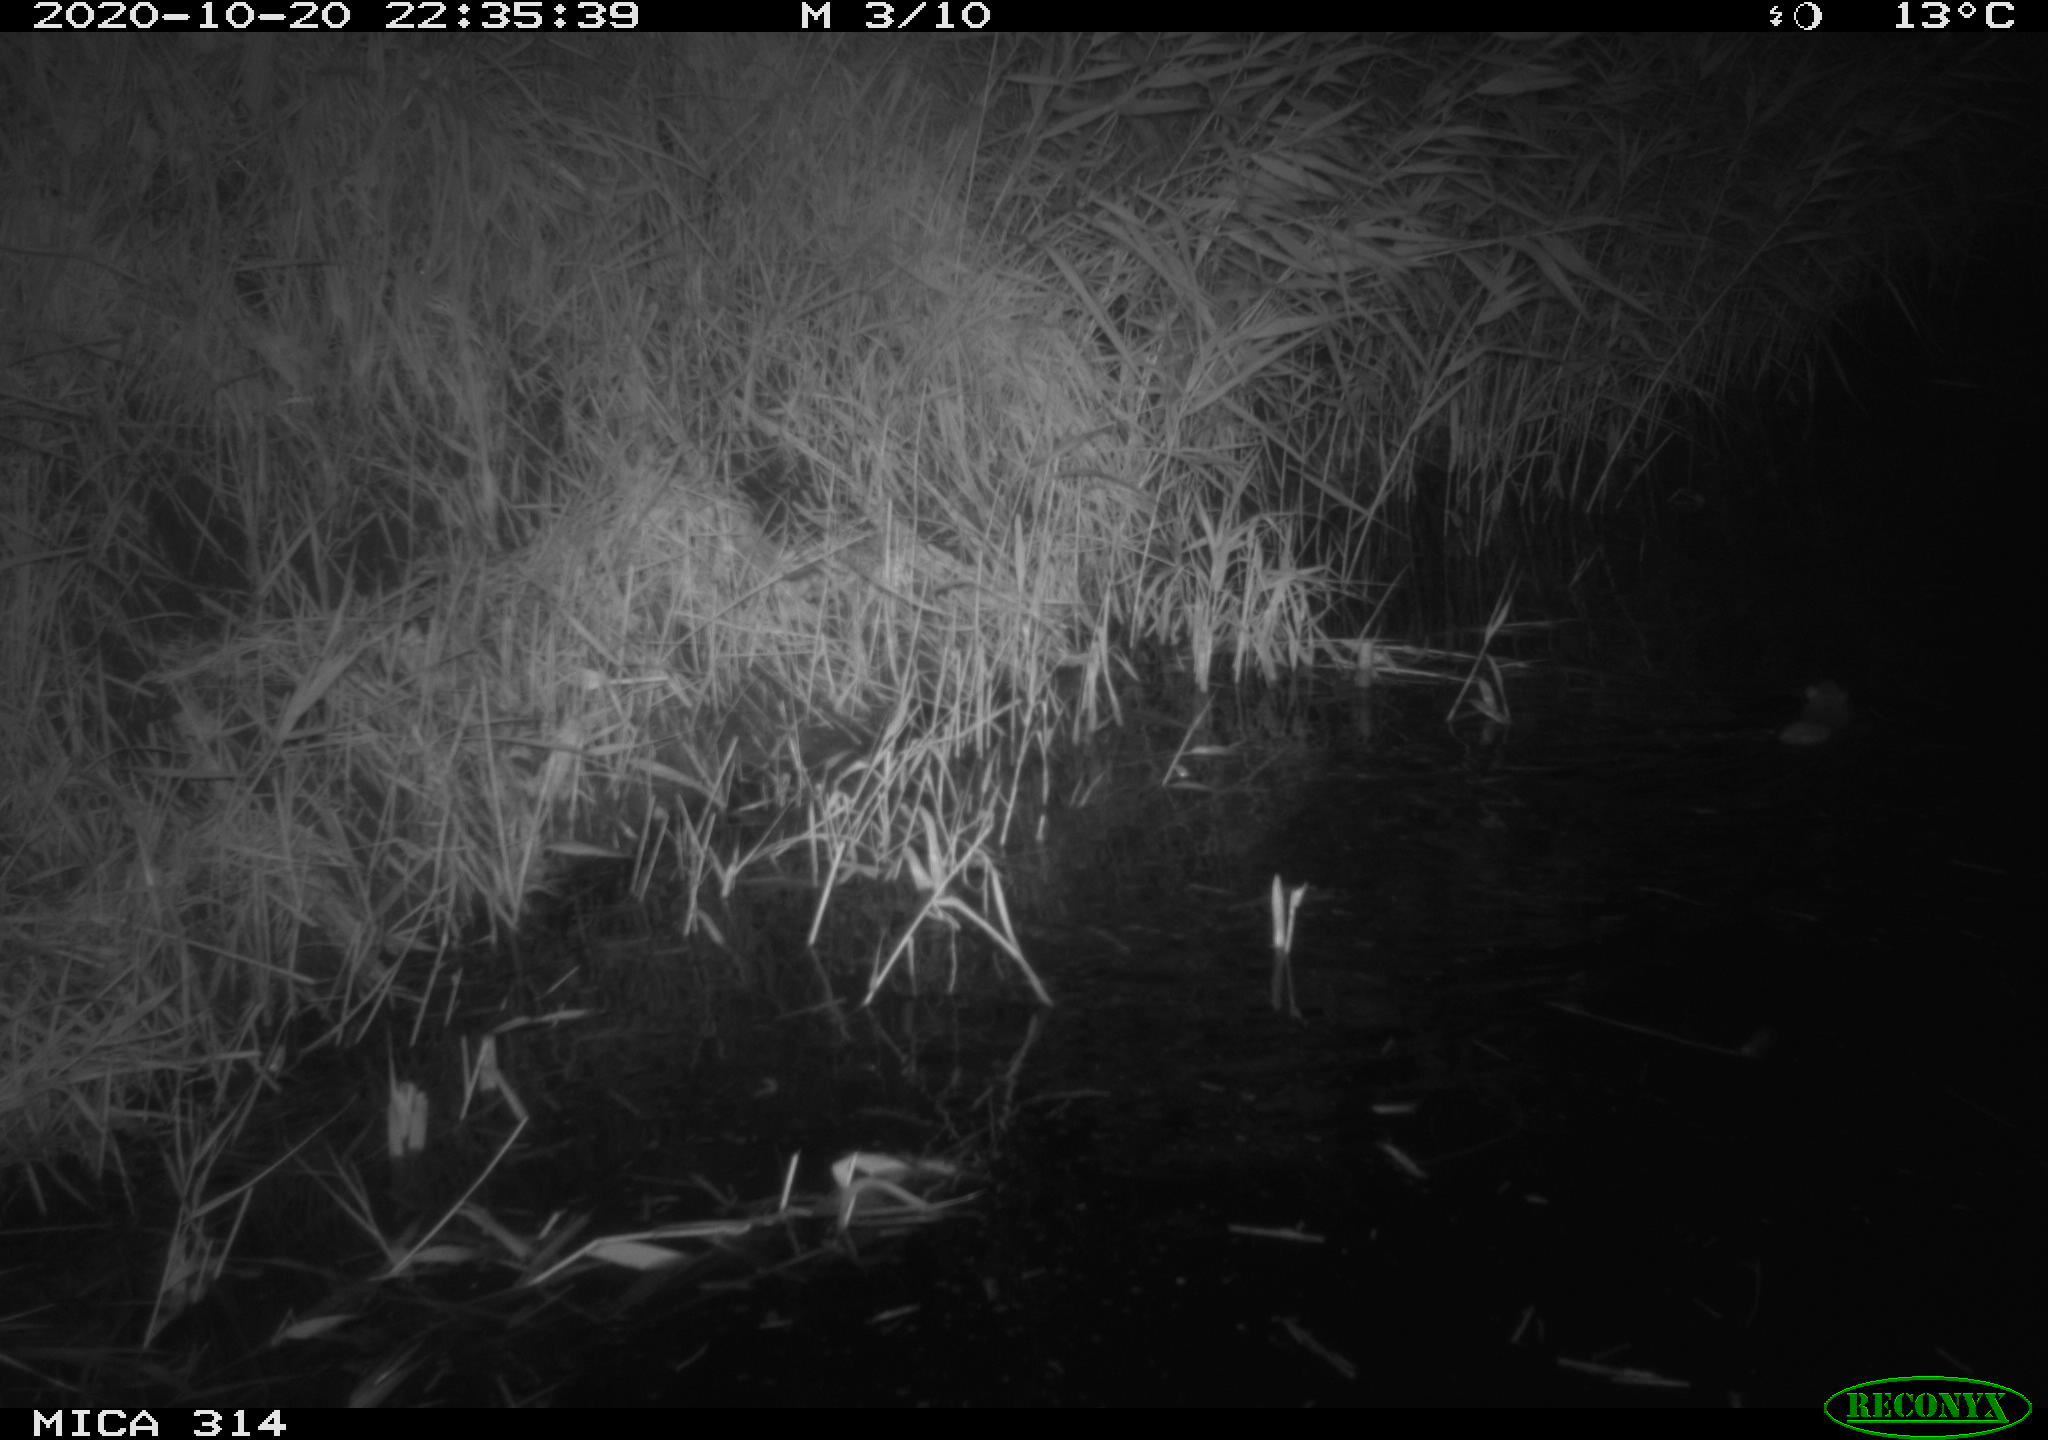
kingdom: Animalia
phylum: Chordata
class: Mammalia
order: Rodentia
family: Muridae
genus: Rattus
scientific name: Rattus norvegicus
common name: Brown rat
